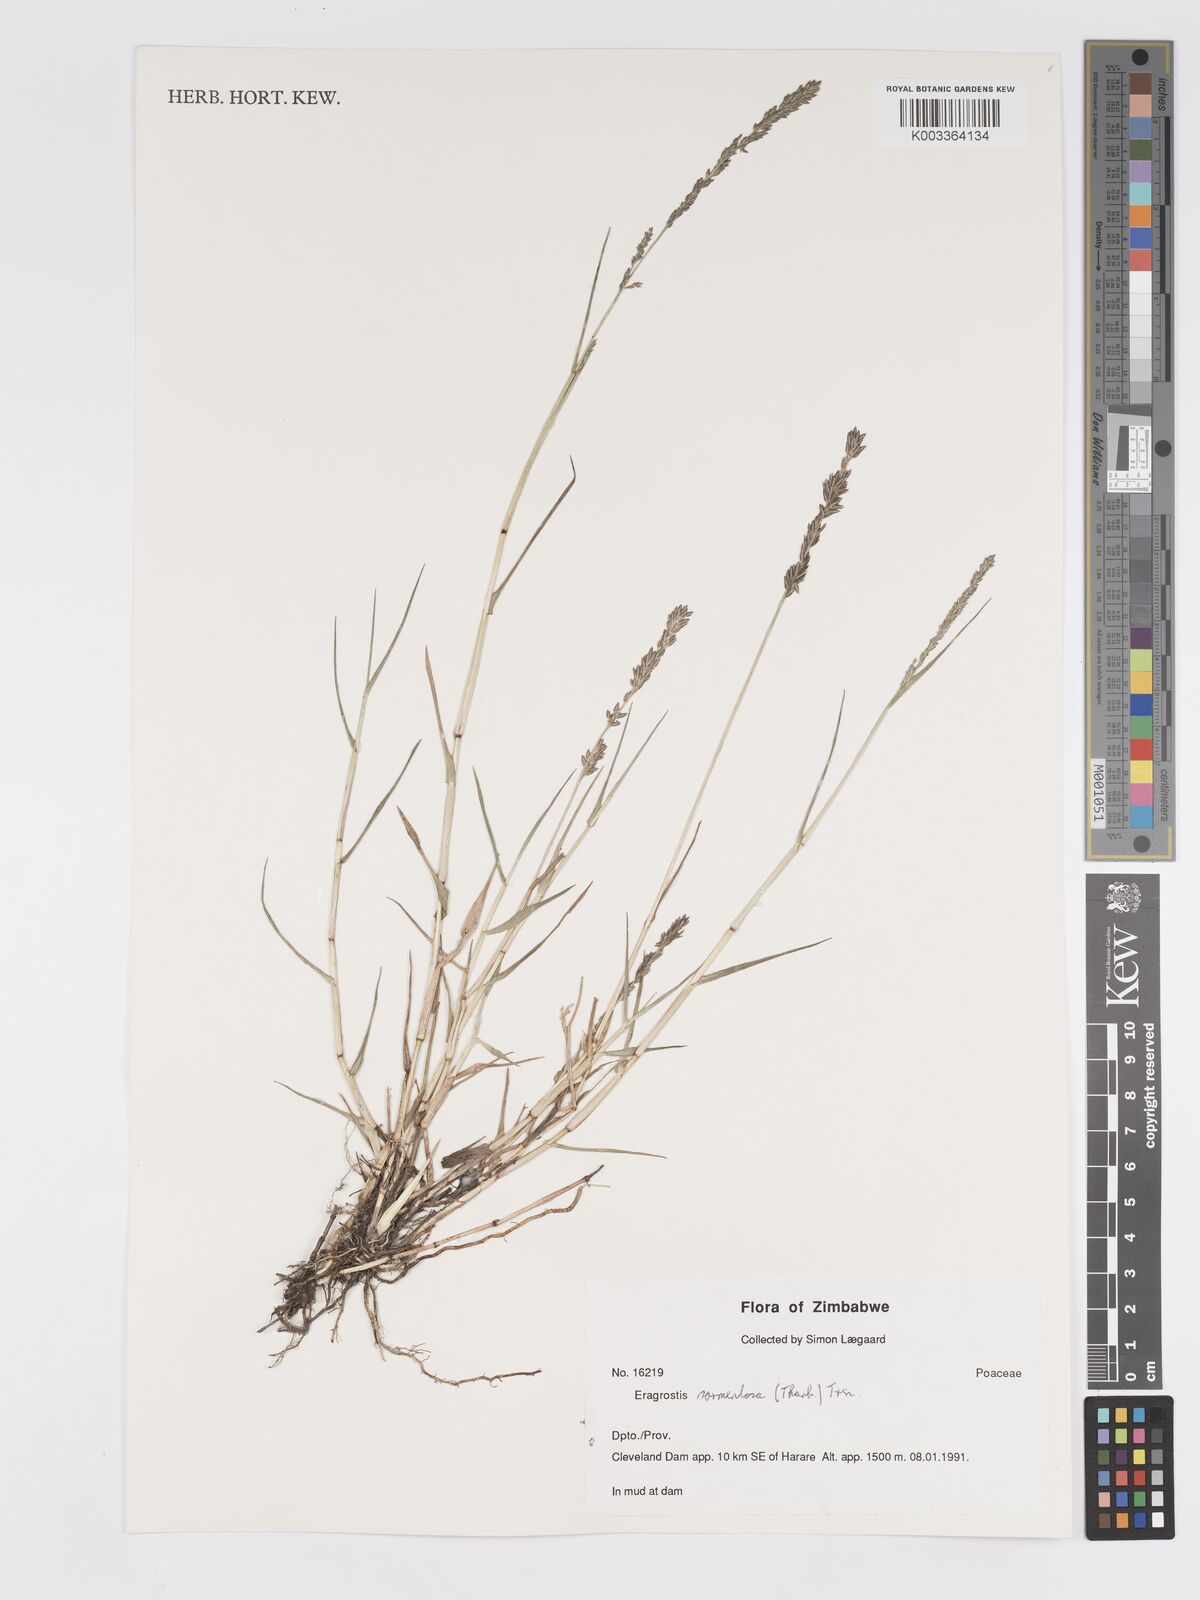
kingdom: Plantae
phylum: Tracheophyta
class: Liliopsida
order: Poales
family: Poaceae
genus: Eragrostis
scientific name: Eragrostis sarmentosa
